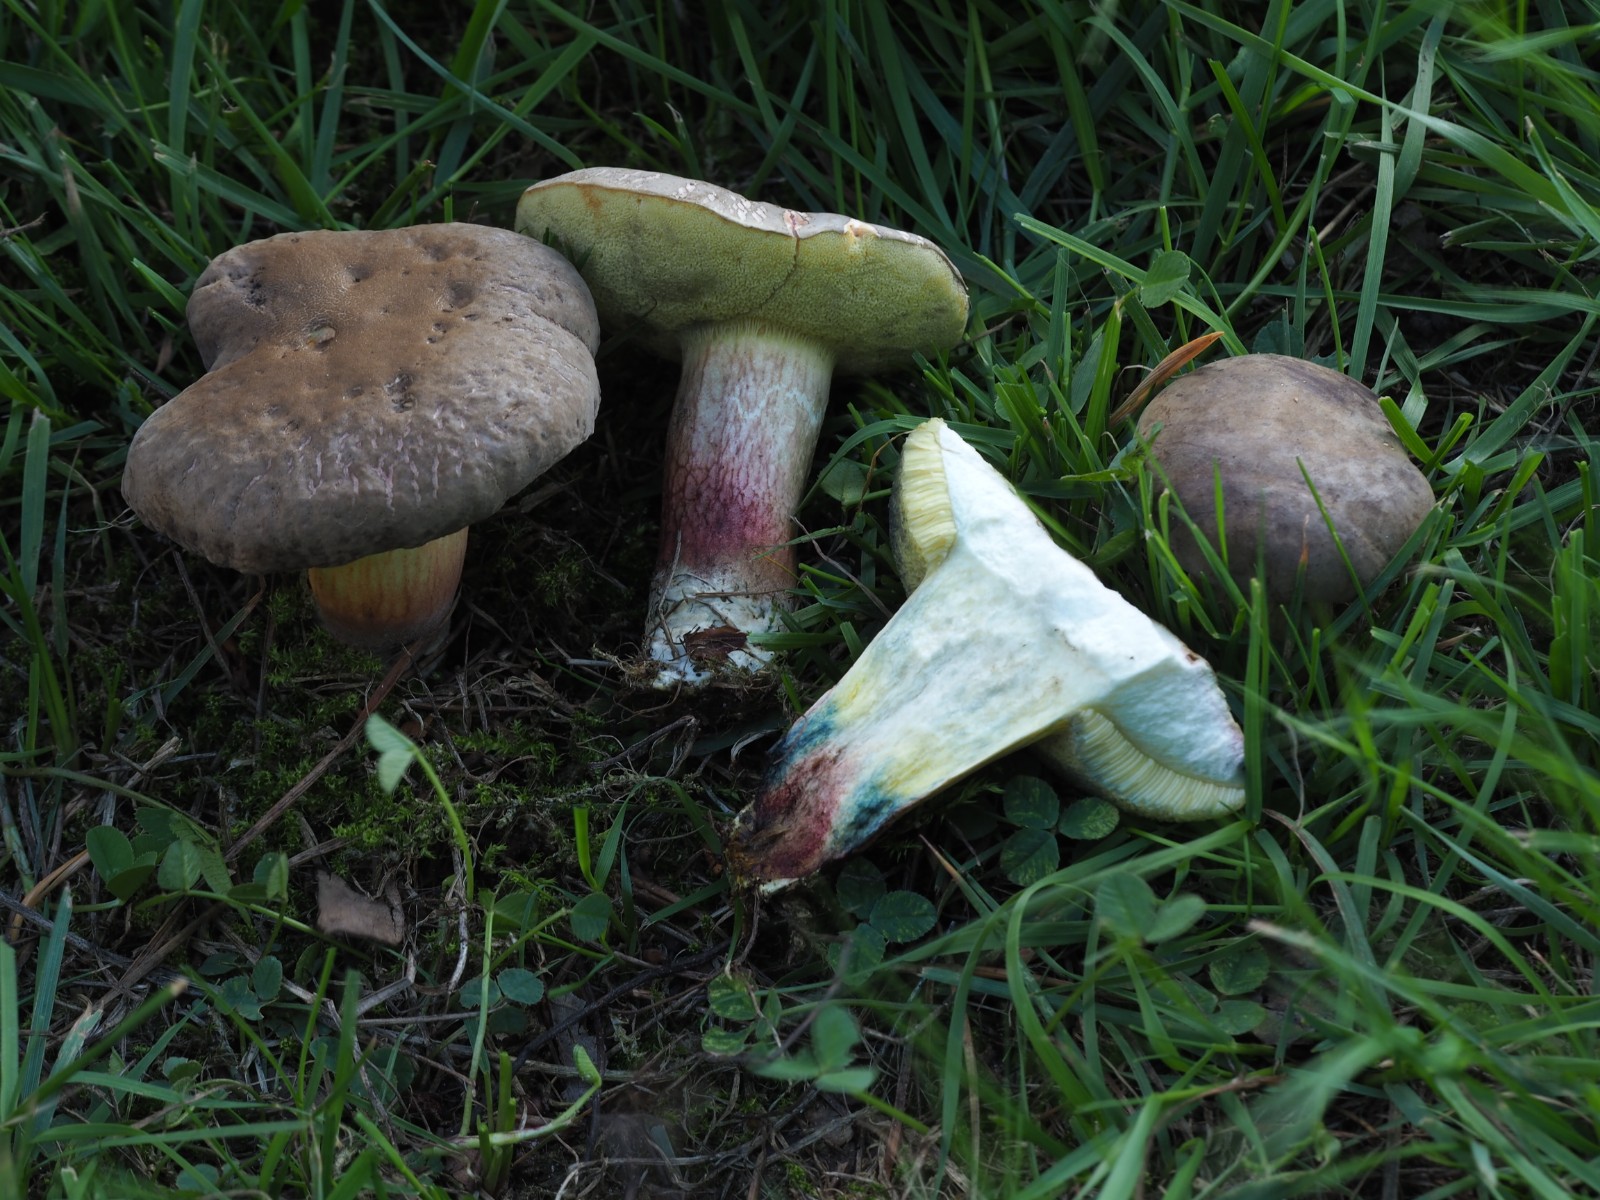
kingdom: Fungi
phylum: Basidiomycota
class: Agaricomycetes
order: Boletales
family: Boletaceae
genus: Xerocomellus
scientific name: Xerocomellus cisalpinus
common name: finsprukken rørhat
